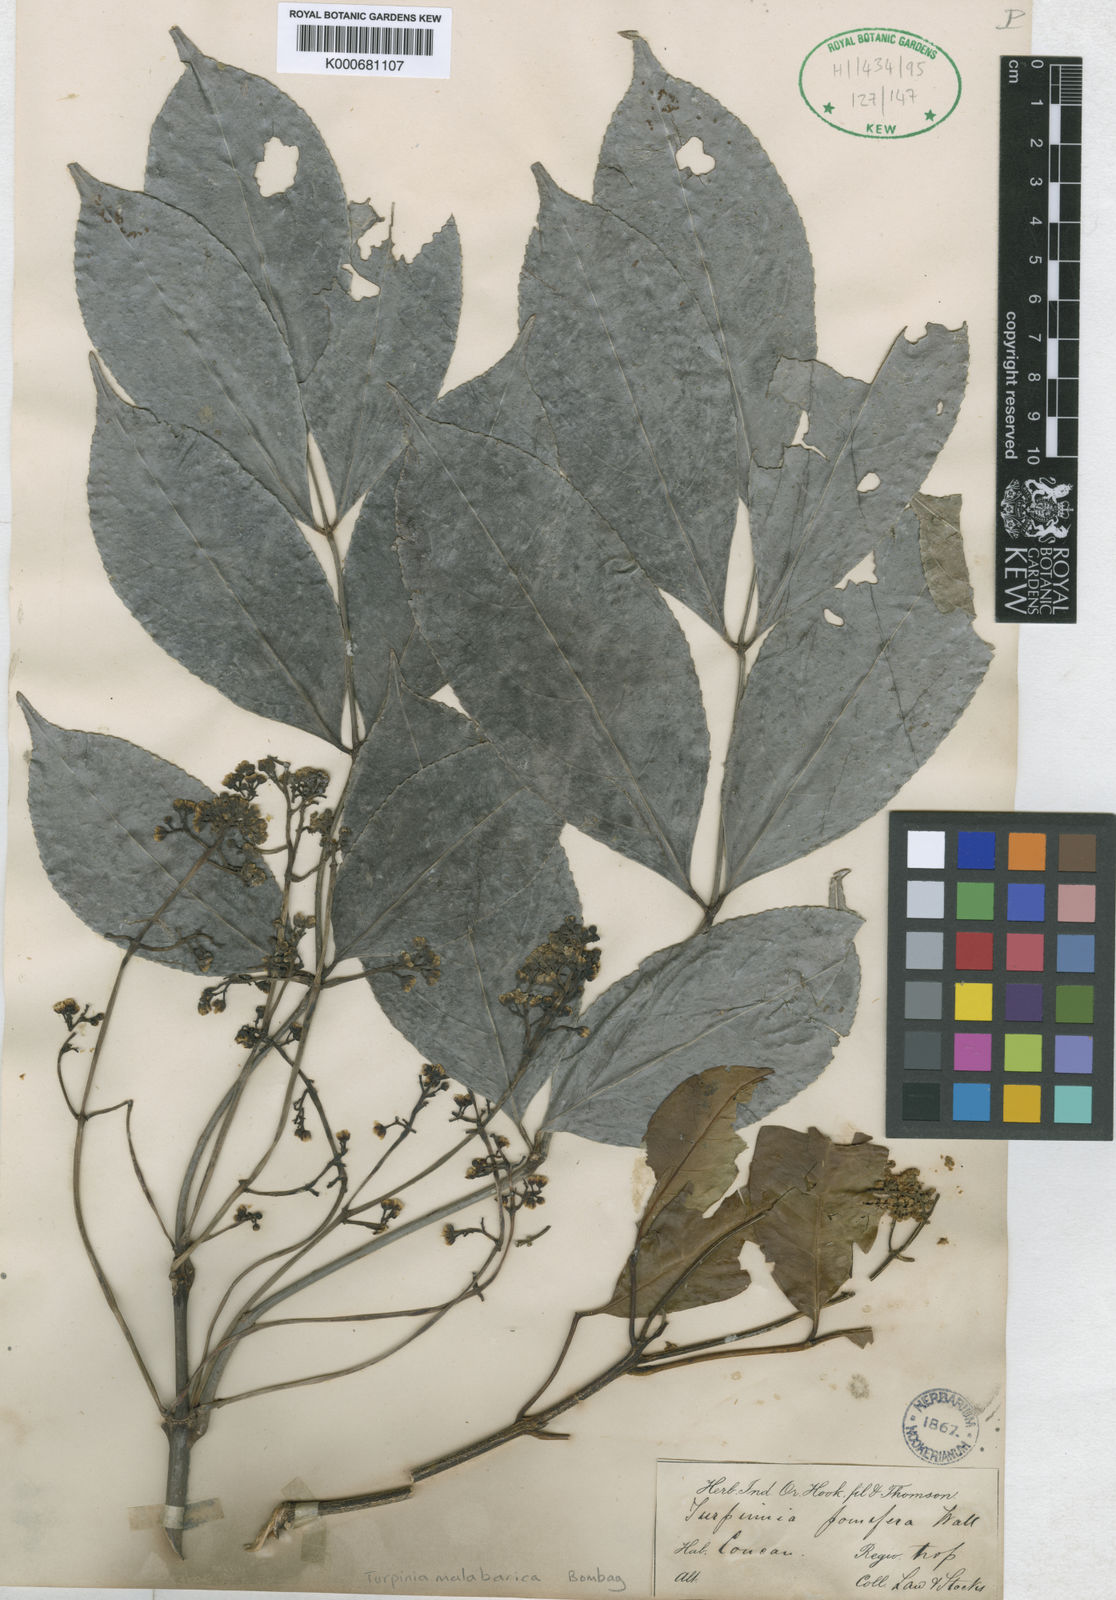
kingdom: Plantae
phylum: Tracheophyta
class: Magnoliopsida
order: Crossosomatales
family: Staphyleaceae
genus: Turpinia
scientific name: Turpinia malabarica
